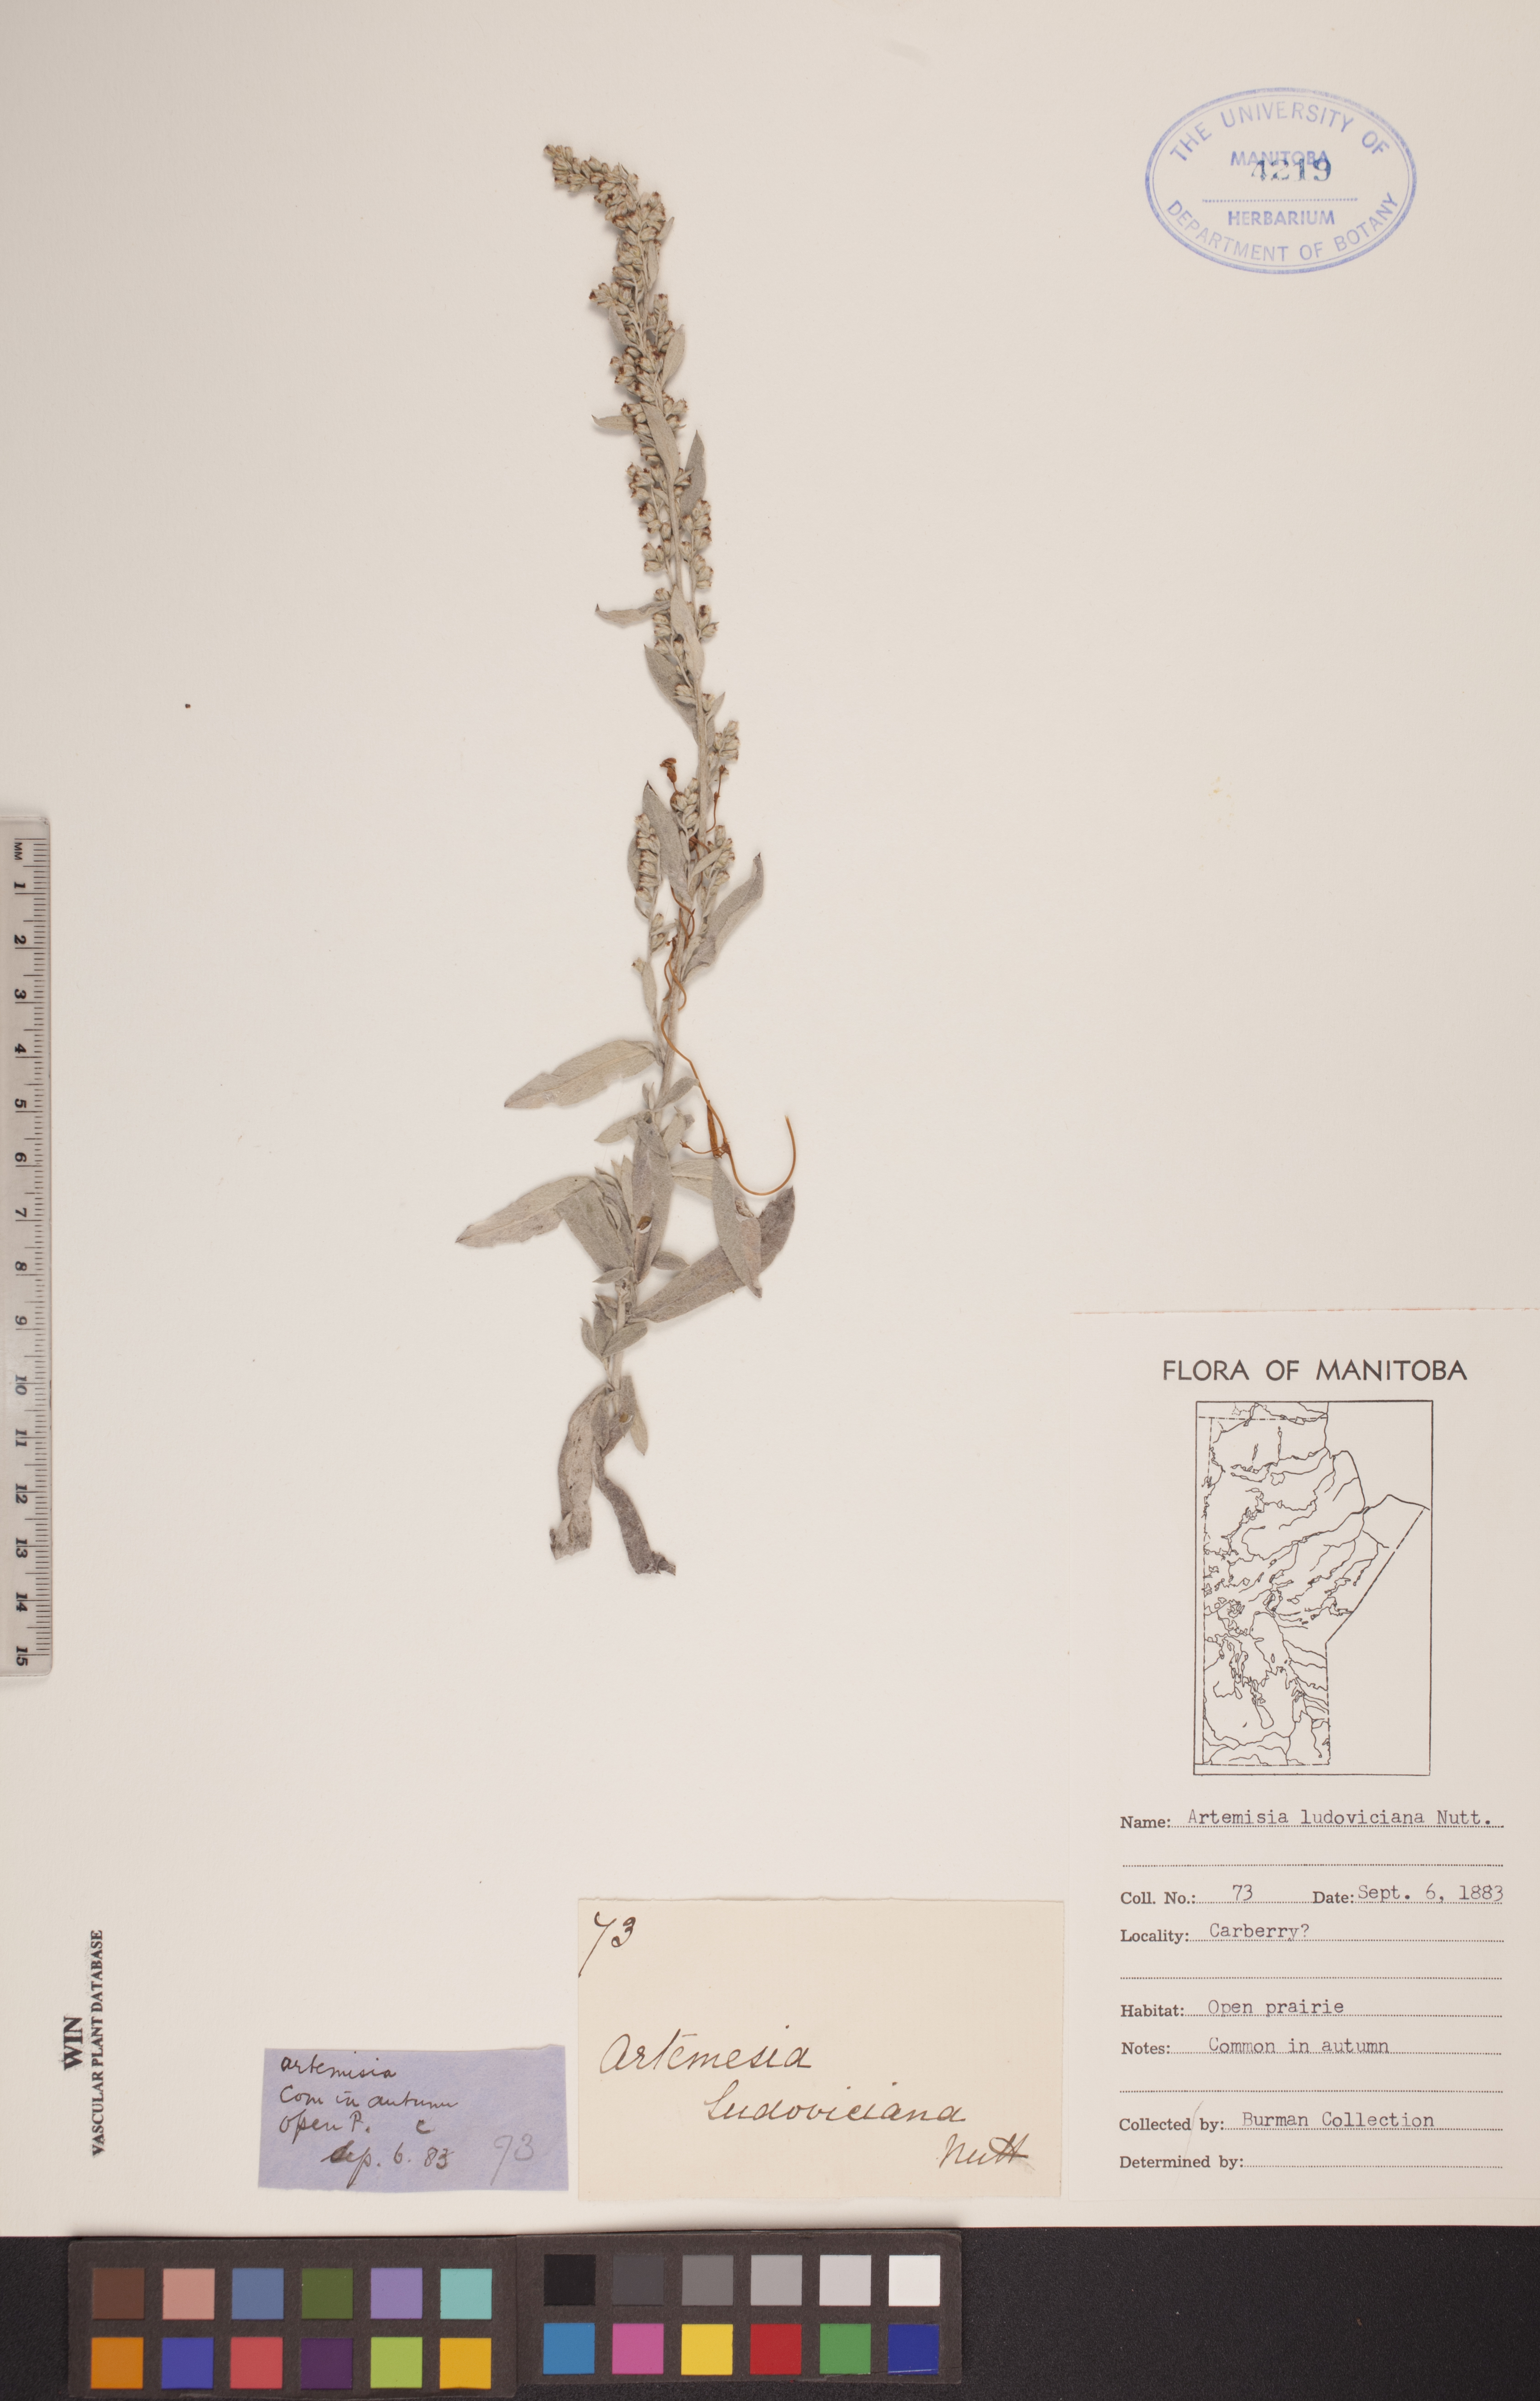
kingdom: Plantae
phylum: Tracheophyta
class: Magnoliopsida
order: Asterales
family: Asteraceae
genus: Artemisia
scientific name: Artemisia ludoviciana
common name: Western mugwort
